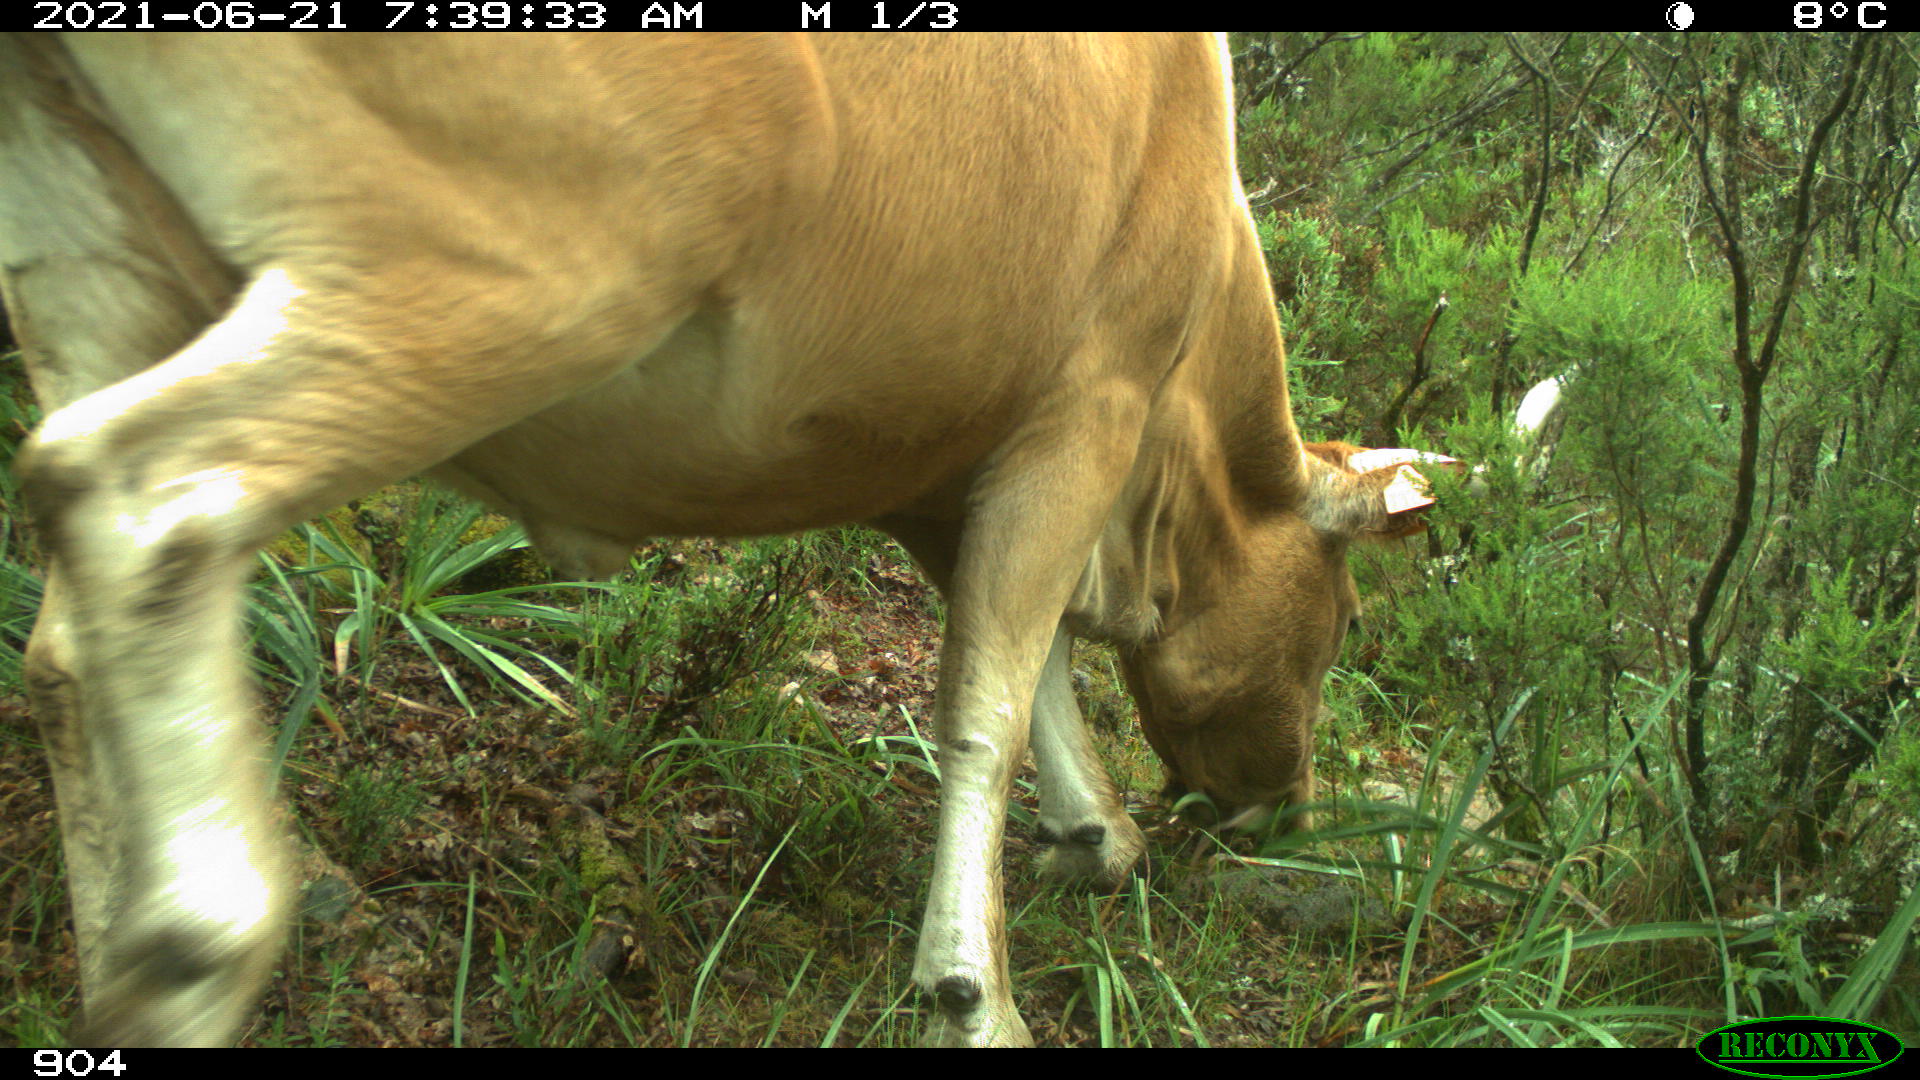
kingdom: Animalia
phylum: Chordata
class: Mammalia
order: Artiodactyla
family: Bovidae
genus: Bos
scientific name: Bos taurus
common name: Domesticated cattle
